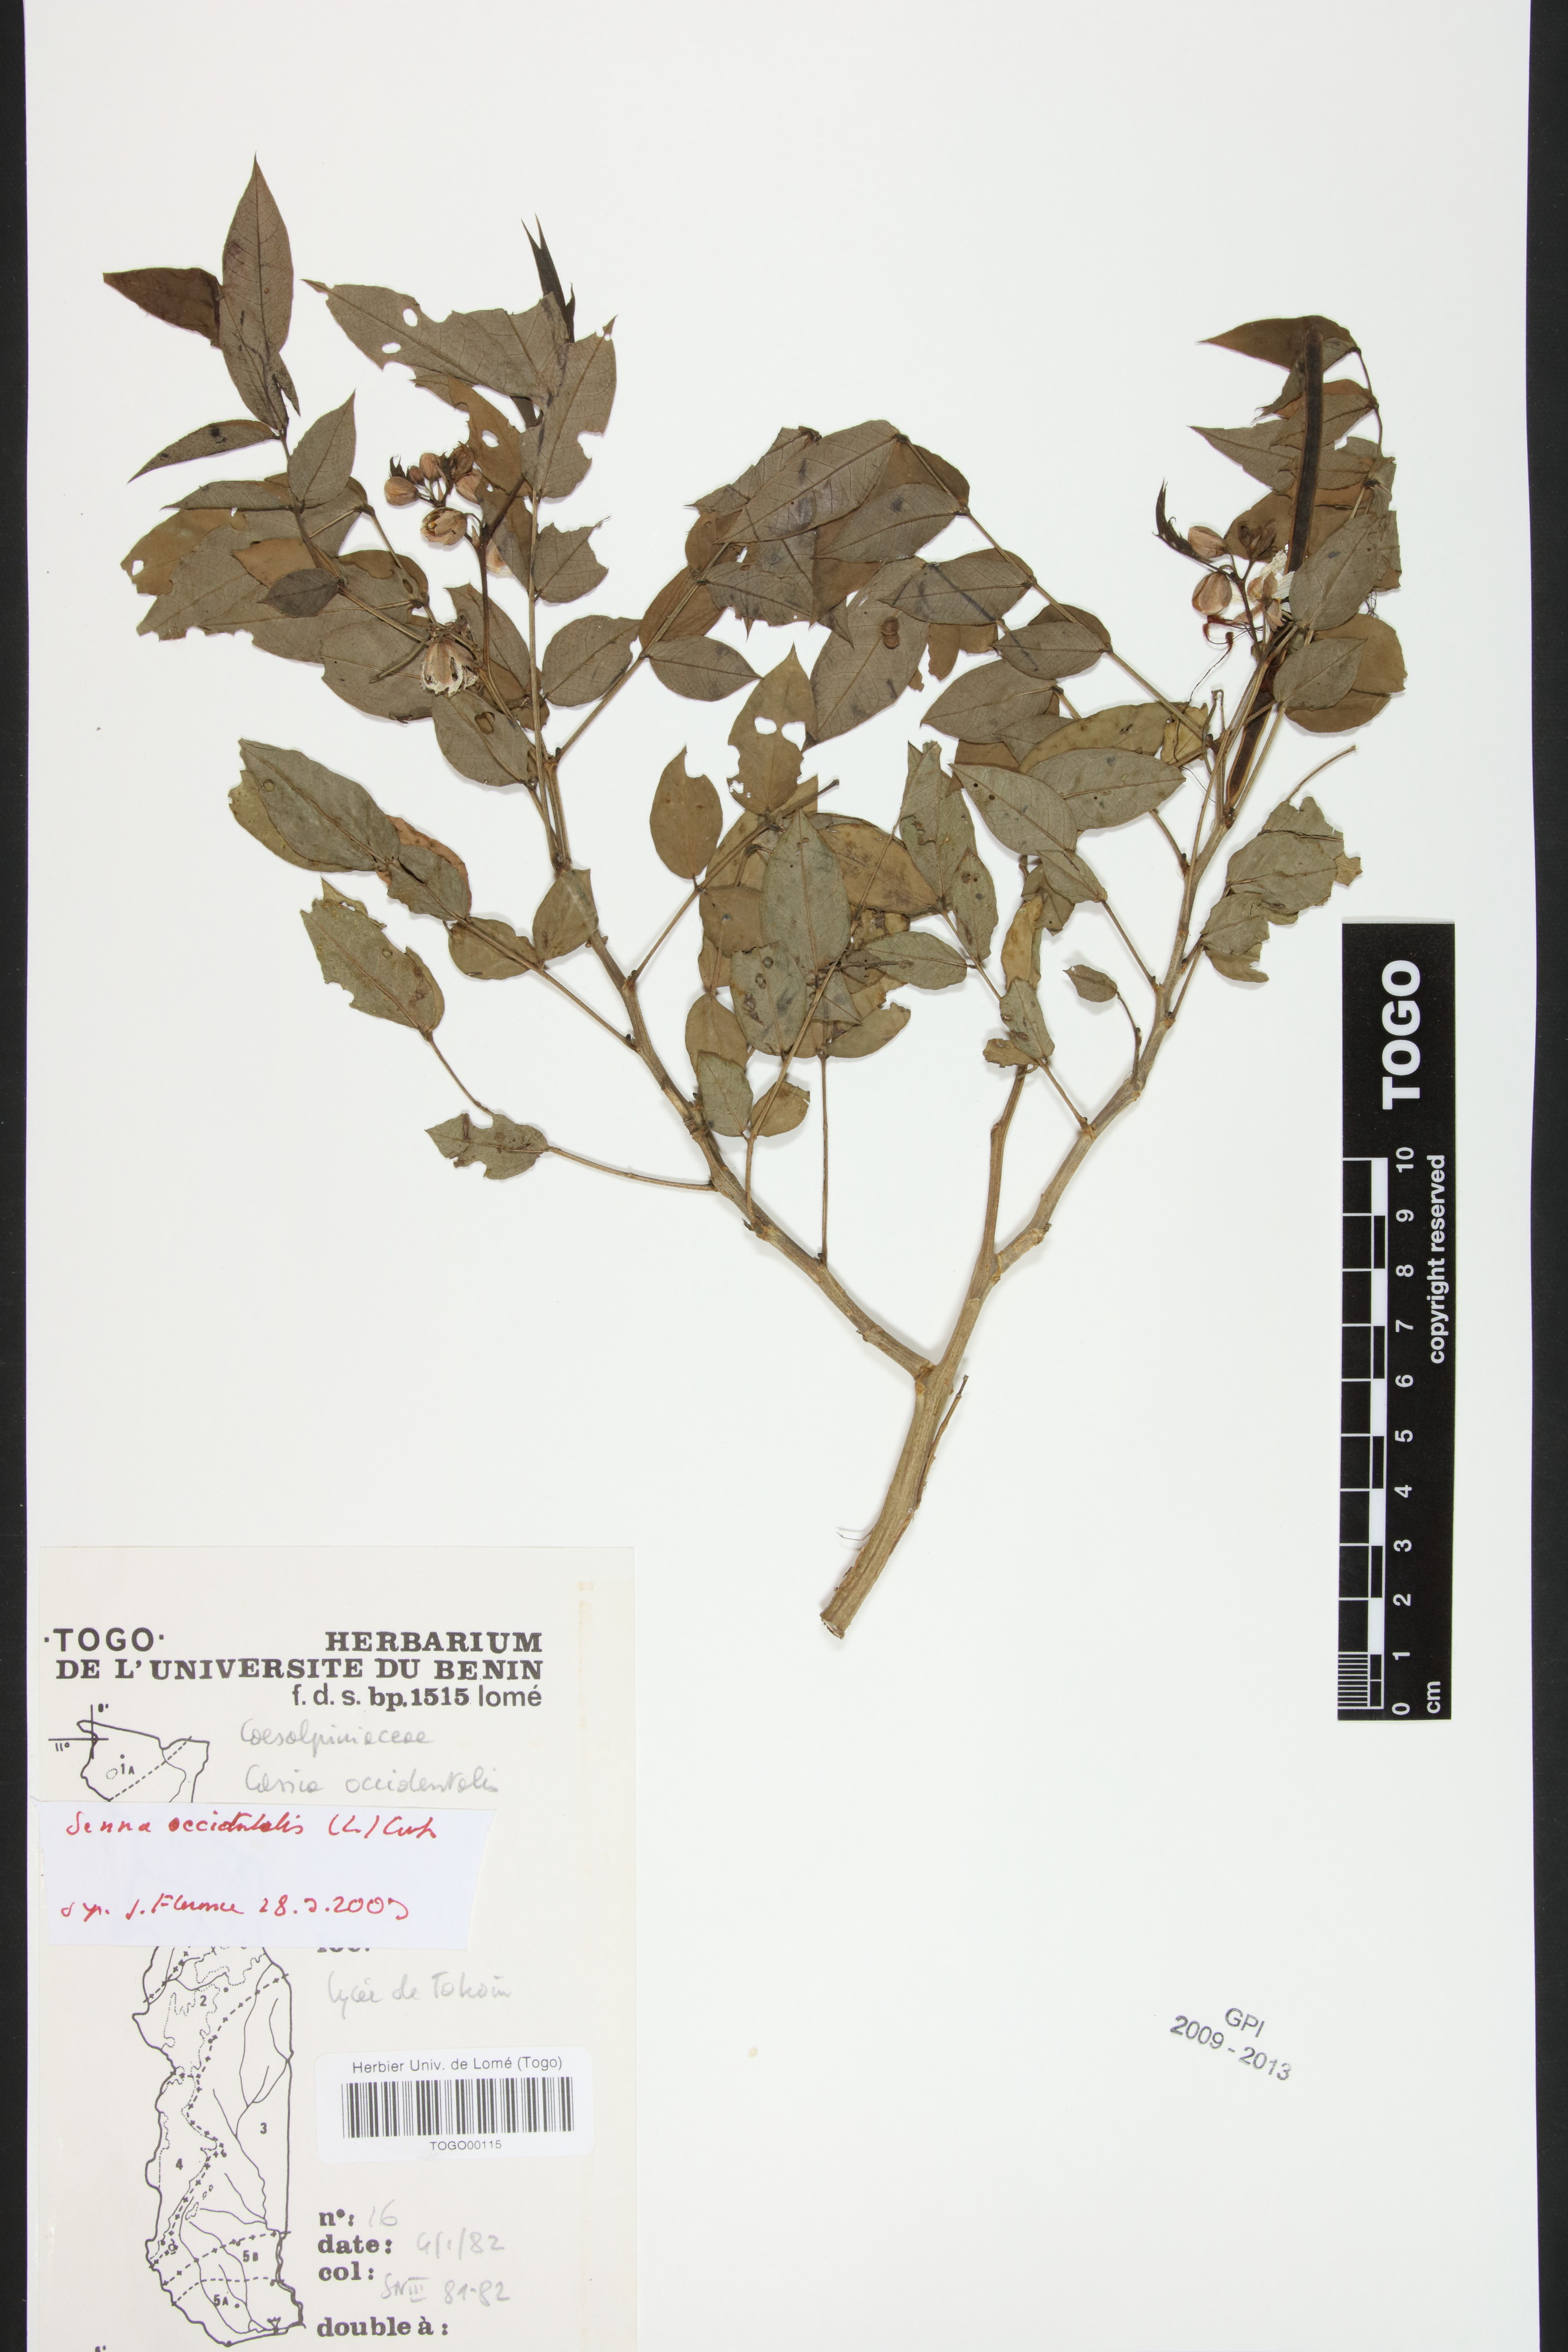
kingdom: Plantae
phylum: Tracheophyta
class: Magnoliopsida
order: Fabales
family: Fabaceae
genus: Senna
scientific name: Senna occidentalis
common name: Septicweed
